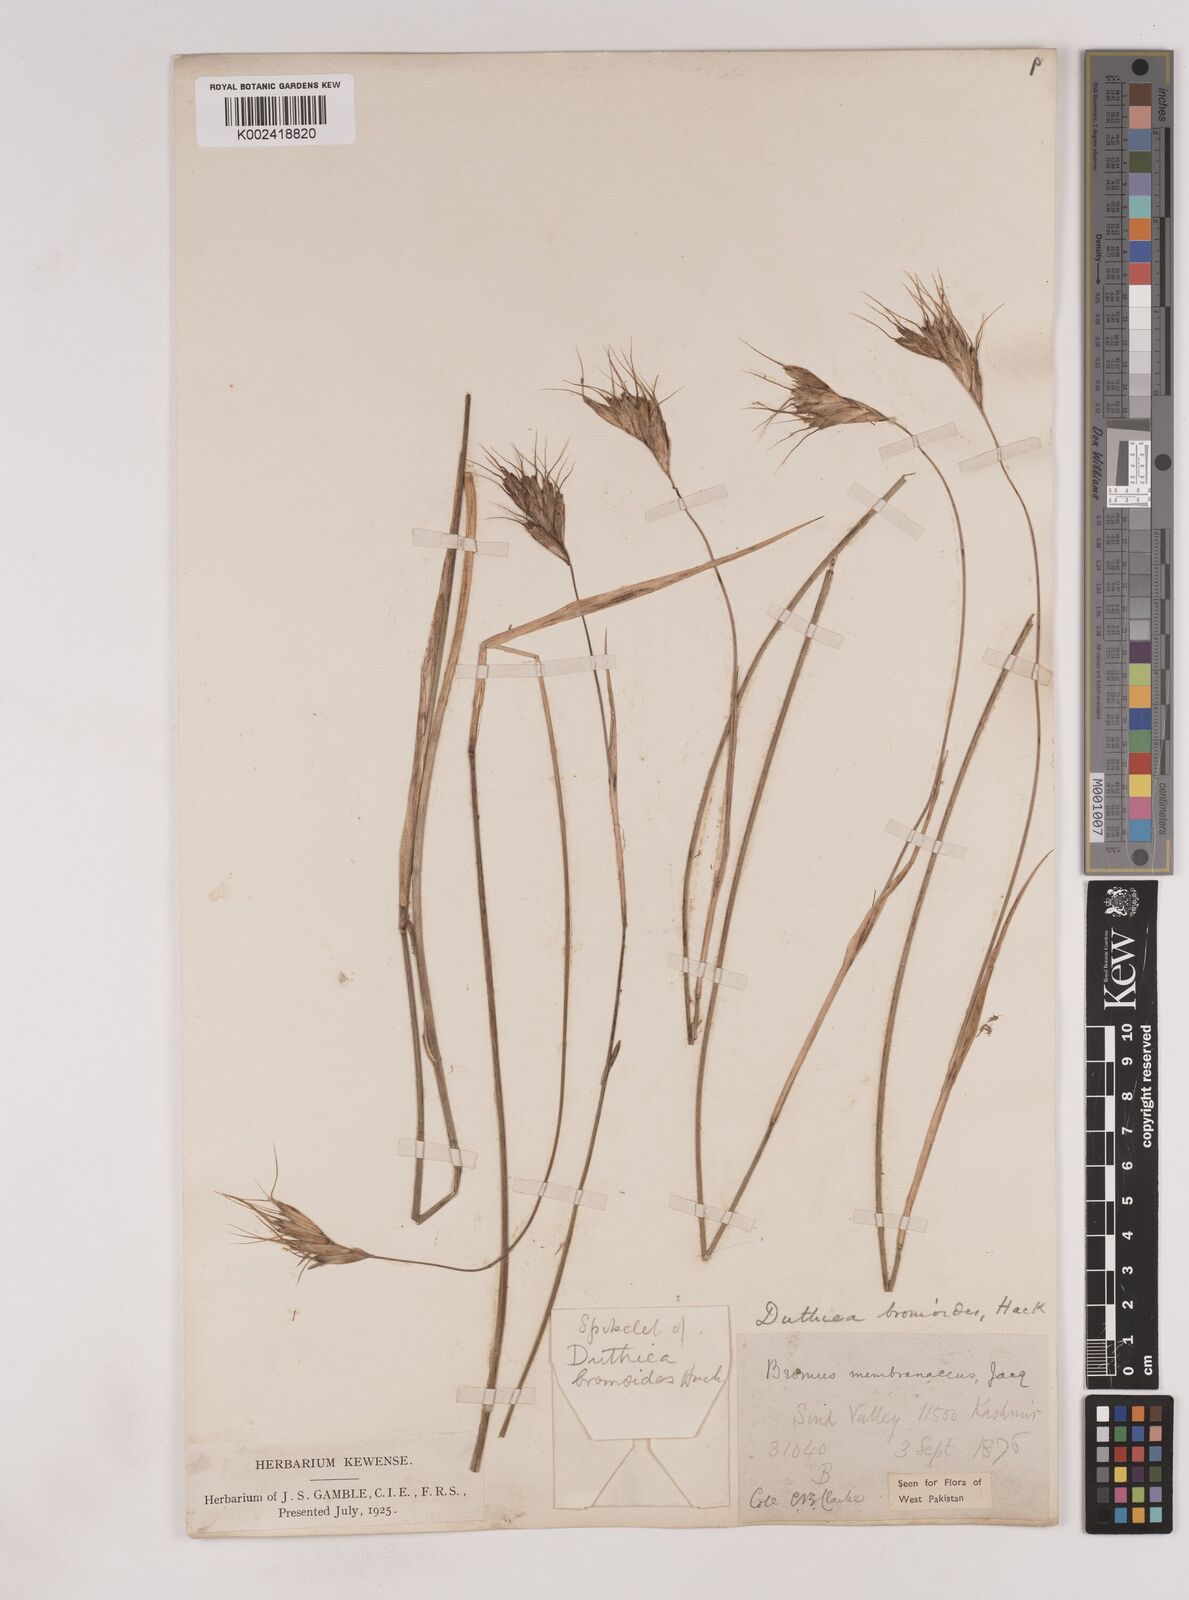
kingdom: Plantae
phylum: Tracheophyta
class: Liliopsida
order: Poales
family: Poaceae
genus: Duthiea
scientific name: Duthiea bromoides
